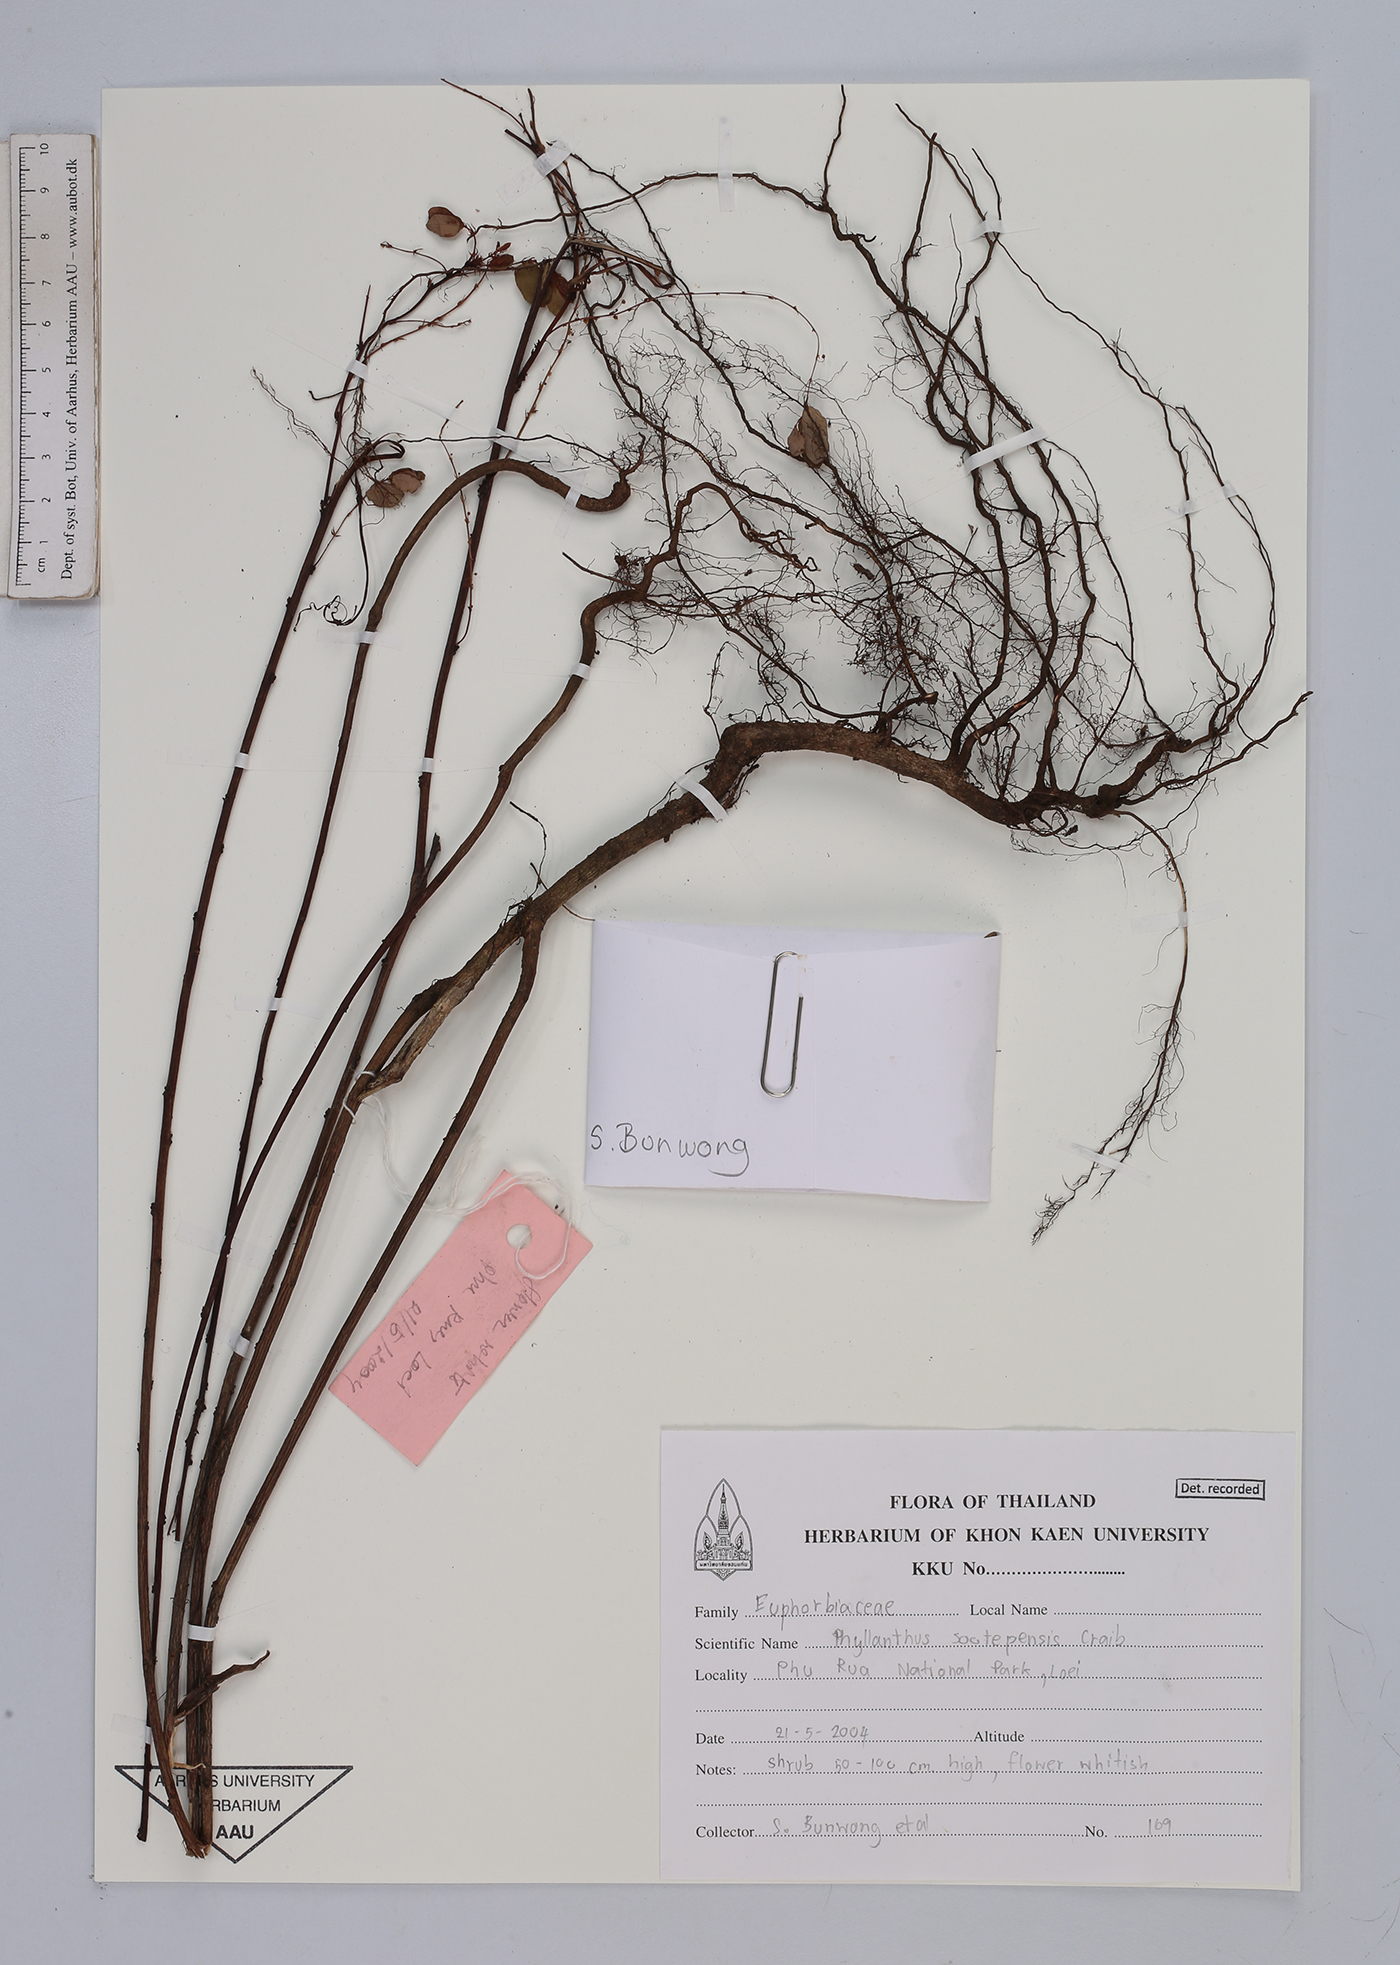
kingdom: Plantae
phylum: Tracheophyta
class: Magnoliopsida
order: Malpighiales
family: Phyllanthaceae
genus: Phyllanthus
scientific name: Phyllanthus sootepensis
